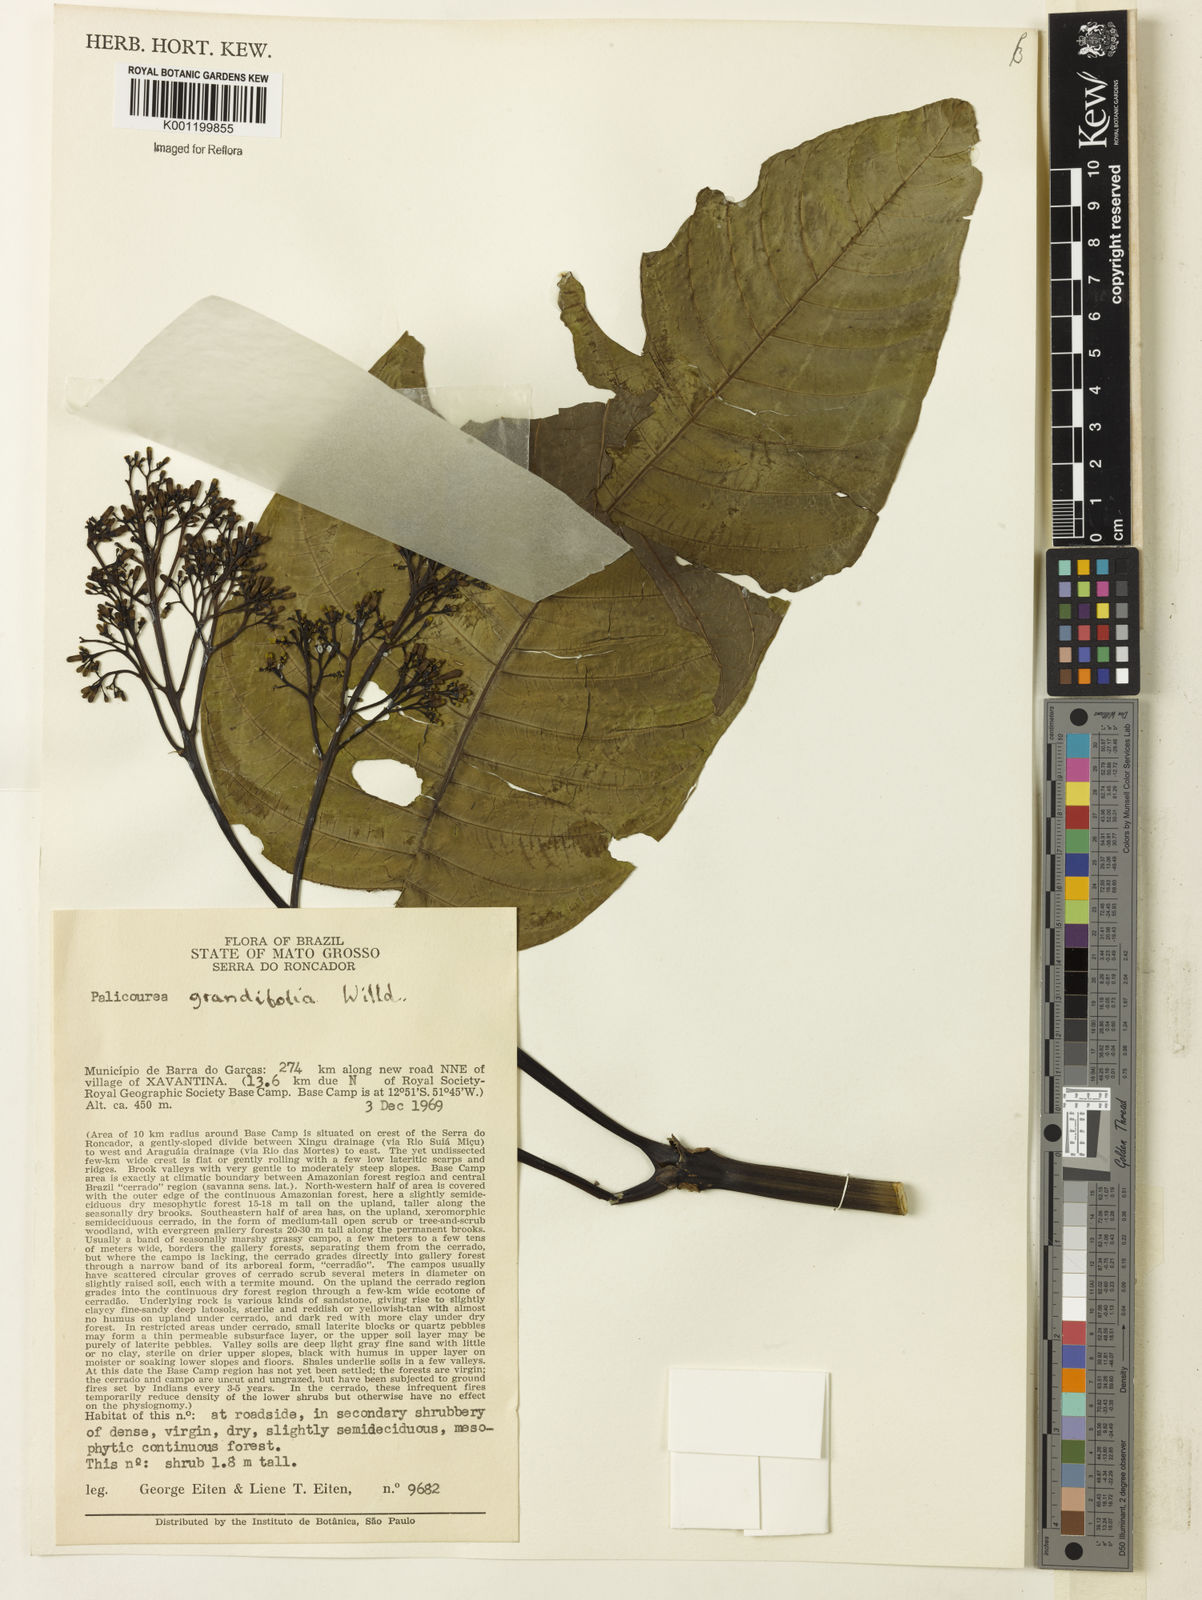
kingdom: Plantae
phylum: Tracheophyta
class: Magnoliopsida
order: Gentianales
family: Rubiaceae
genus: Palicourea
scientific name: Palicourea grandifolia
